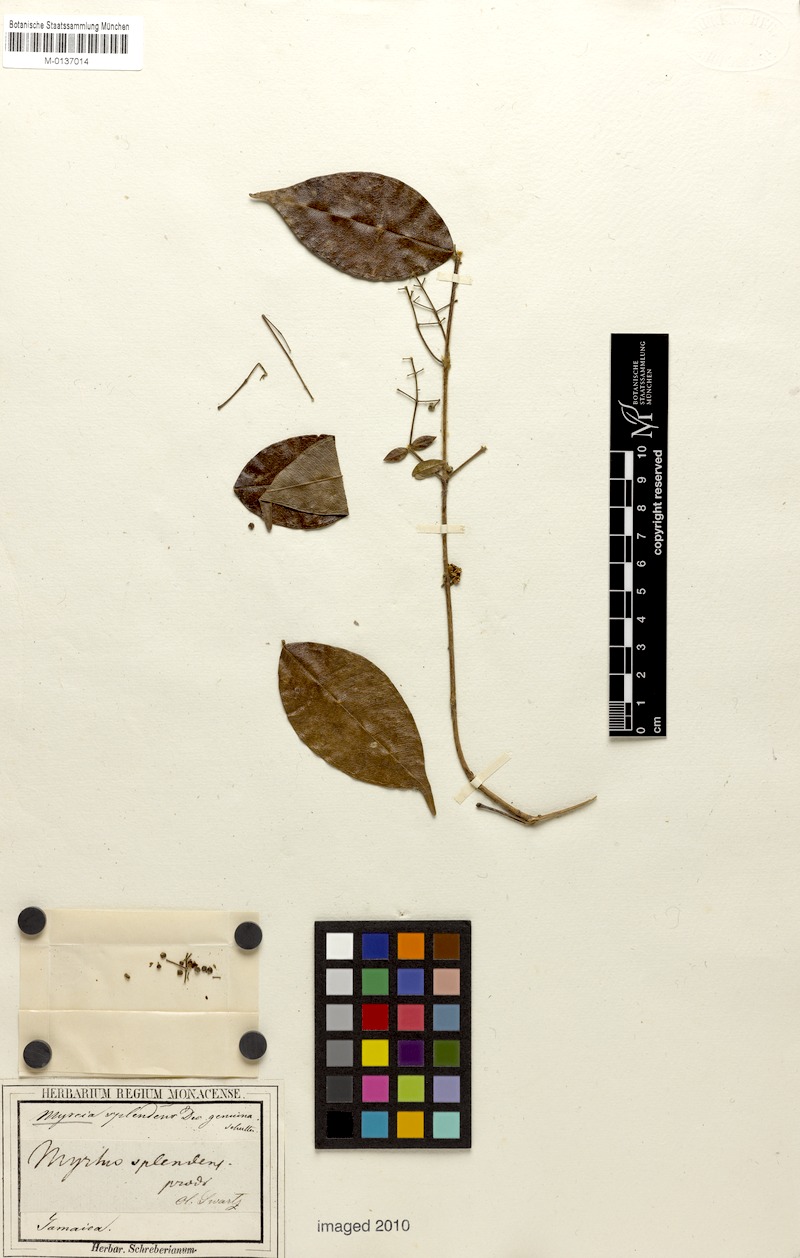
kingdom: Plantae
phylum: Tracheophyta
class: Magnoliopsida
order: Myrtales
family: Myrtaceae
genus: Myrcia
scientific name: Myrcia splendens
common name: Surinam cherry
